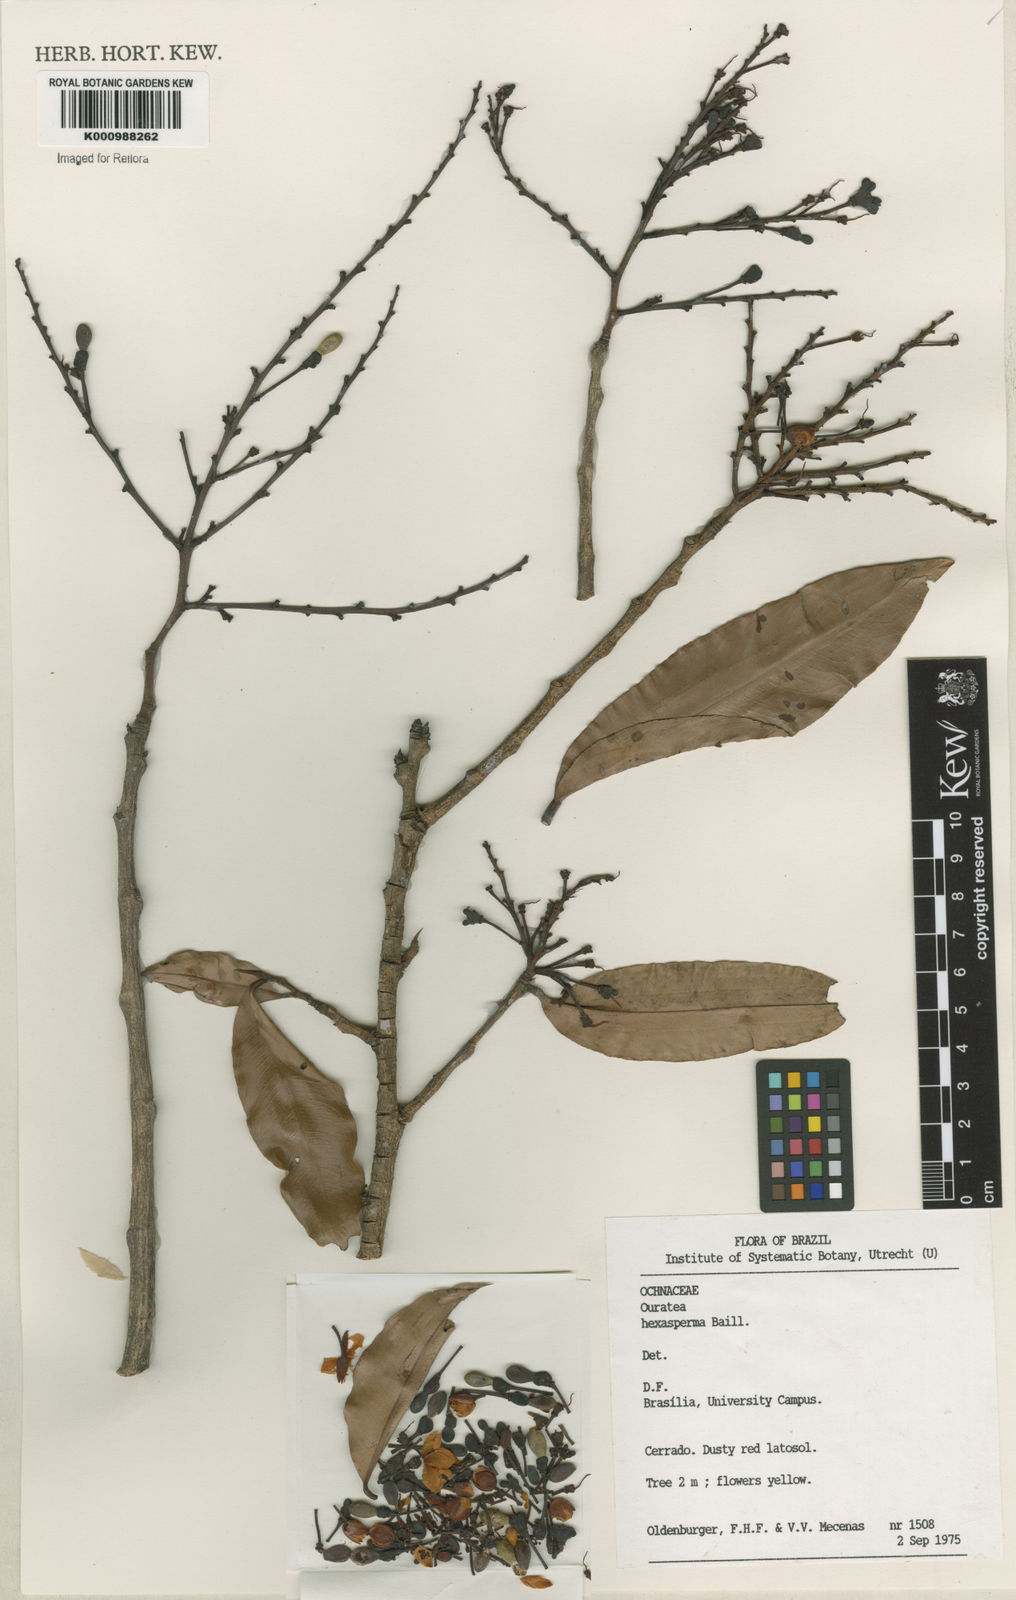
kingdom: Plantae
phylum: Tracheophyta
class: Magnoliopsida
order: Malpighiales
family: Ochnaceae
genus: Ouratea
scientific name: Ouratea hexasperma
